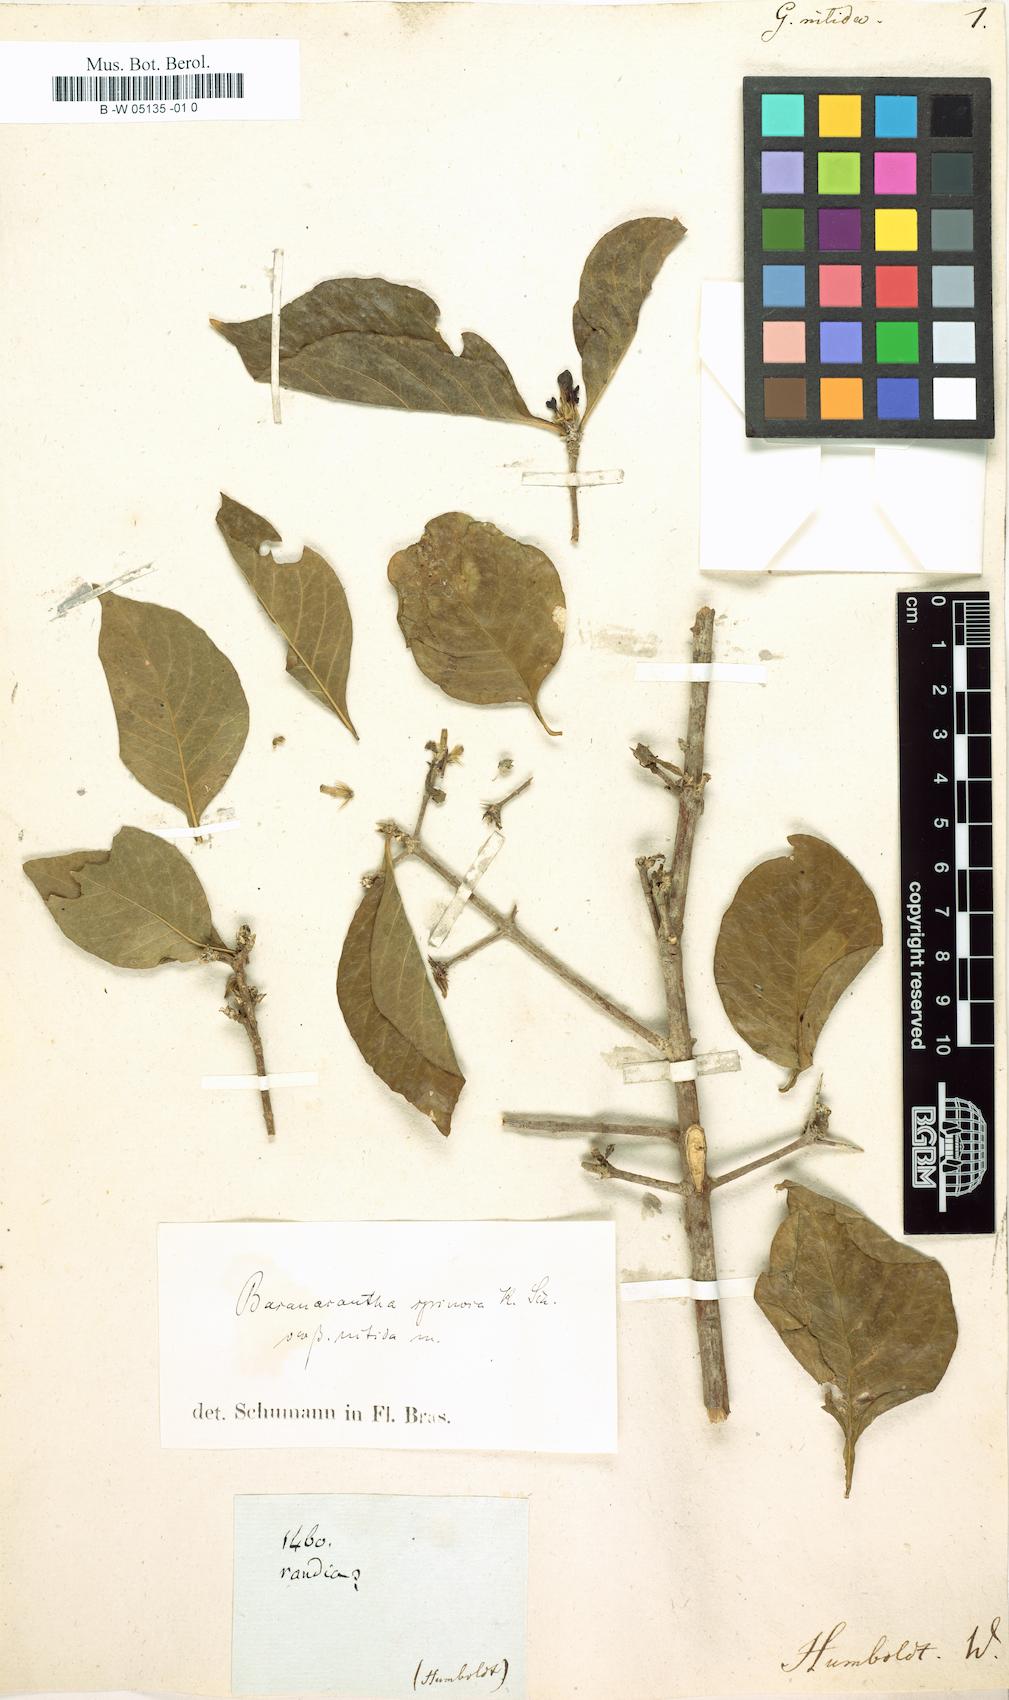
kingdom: Plantae
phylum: Tracheophyta
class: Magnoliopsida
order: Gentianales
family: Rubiaceae
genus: Gardenia
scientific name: Gardenia nitida
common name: Glossy-leaved gardenia
